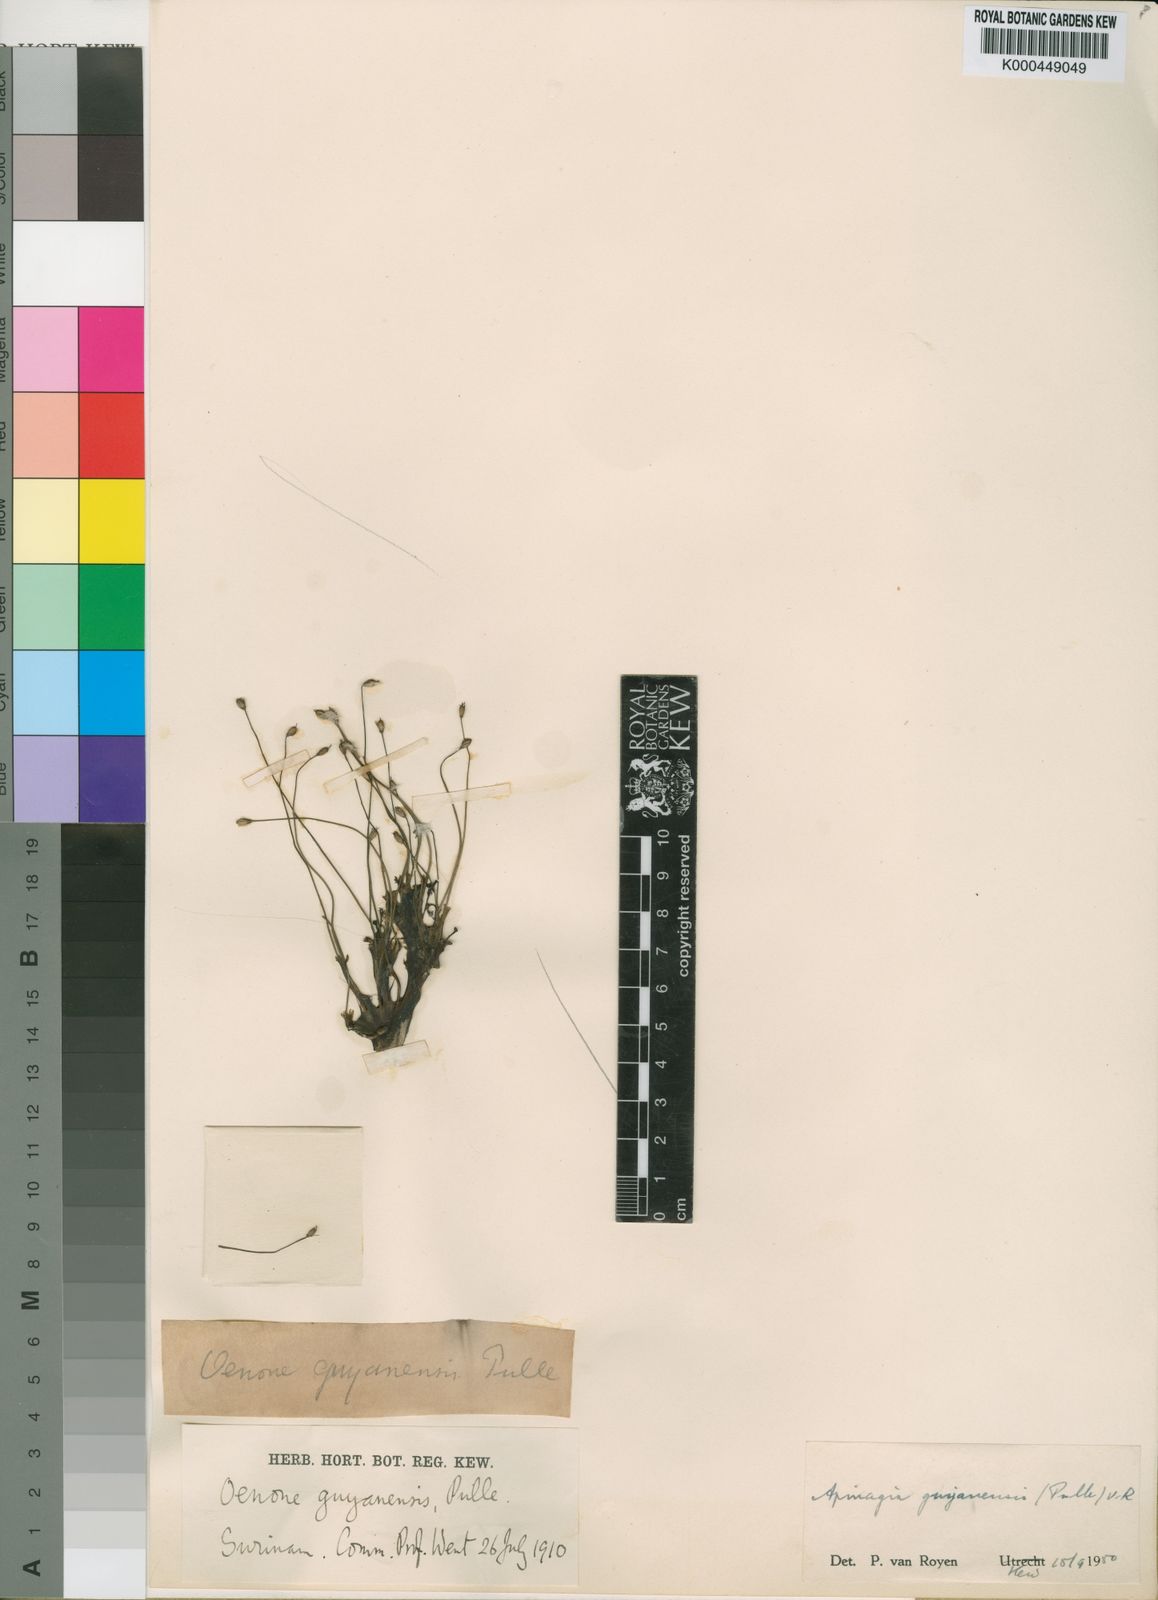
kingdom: Plantae
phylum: Tracheophyta
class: Magnoliopsida
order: Malpighiales
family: Podostemaceae
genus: Apinagia
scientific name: Apinagia guyanensis
